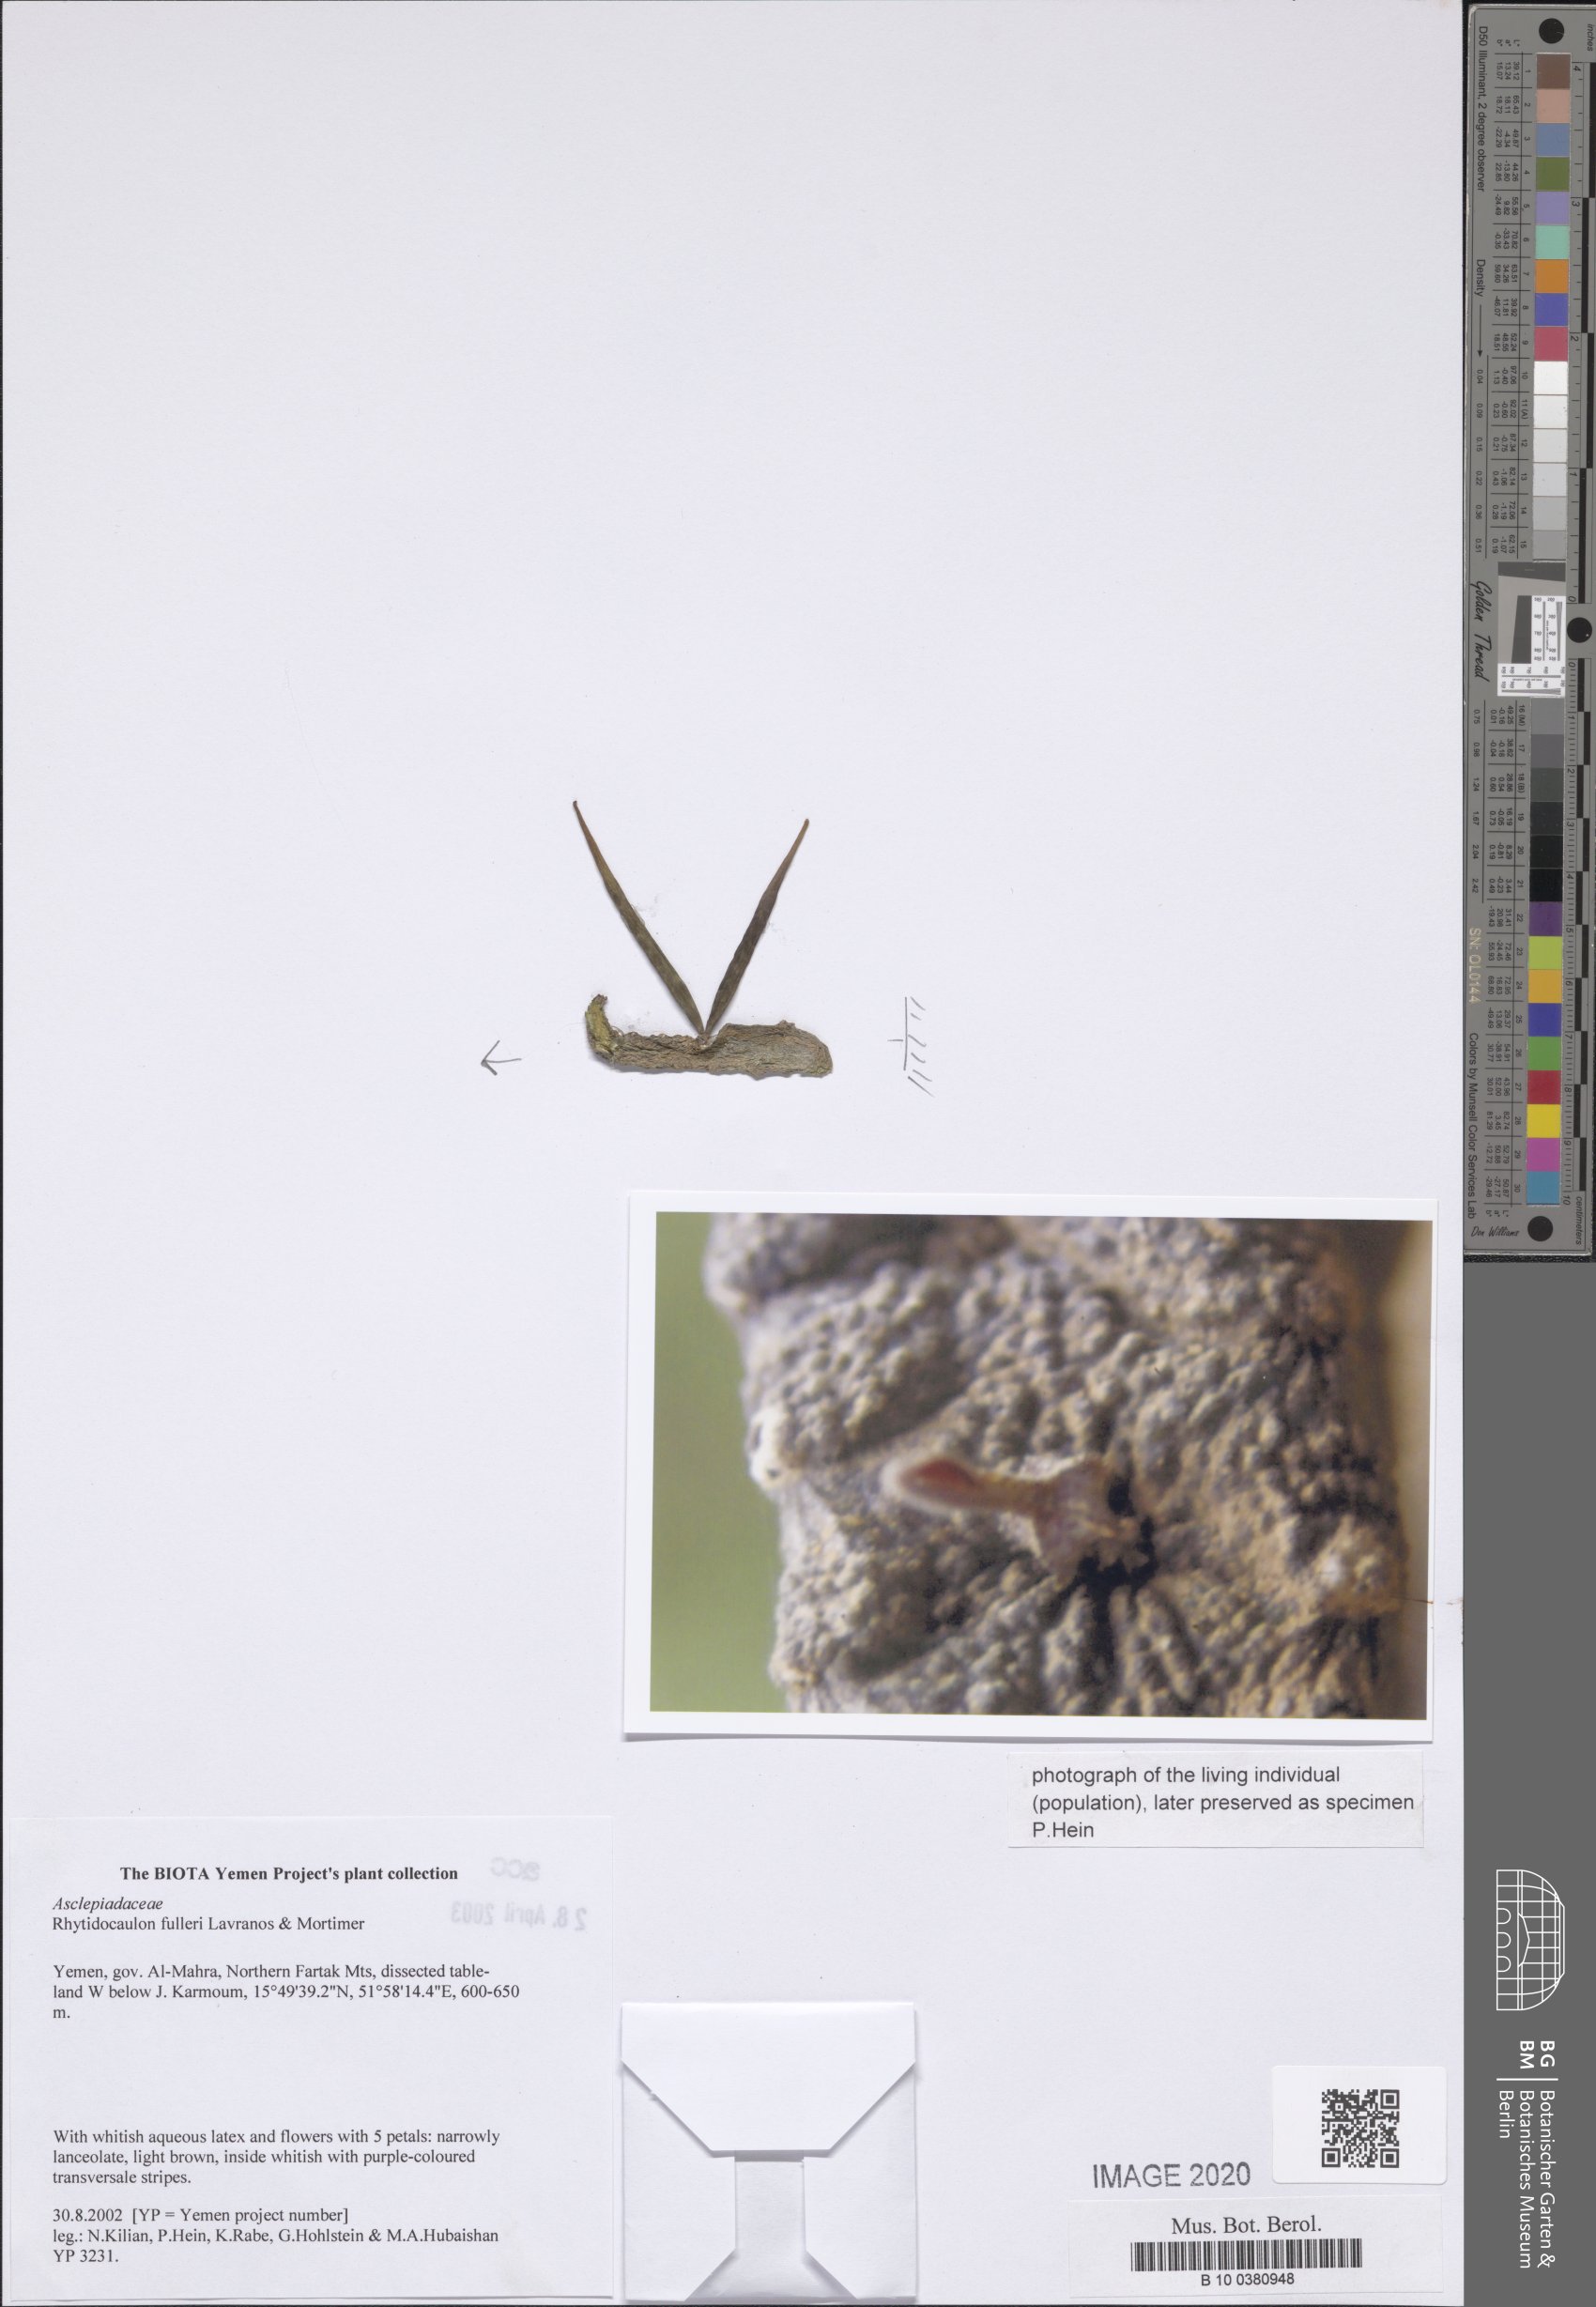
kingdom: Plantae
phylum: Tracheophyta
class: Magnoliopsida
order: Gentianales
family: Apocynaceae
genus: Ceropegia
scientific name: Ceropegia fulleri
